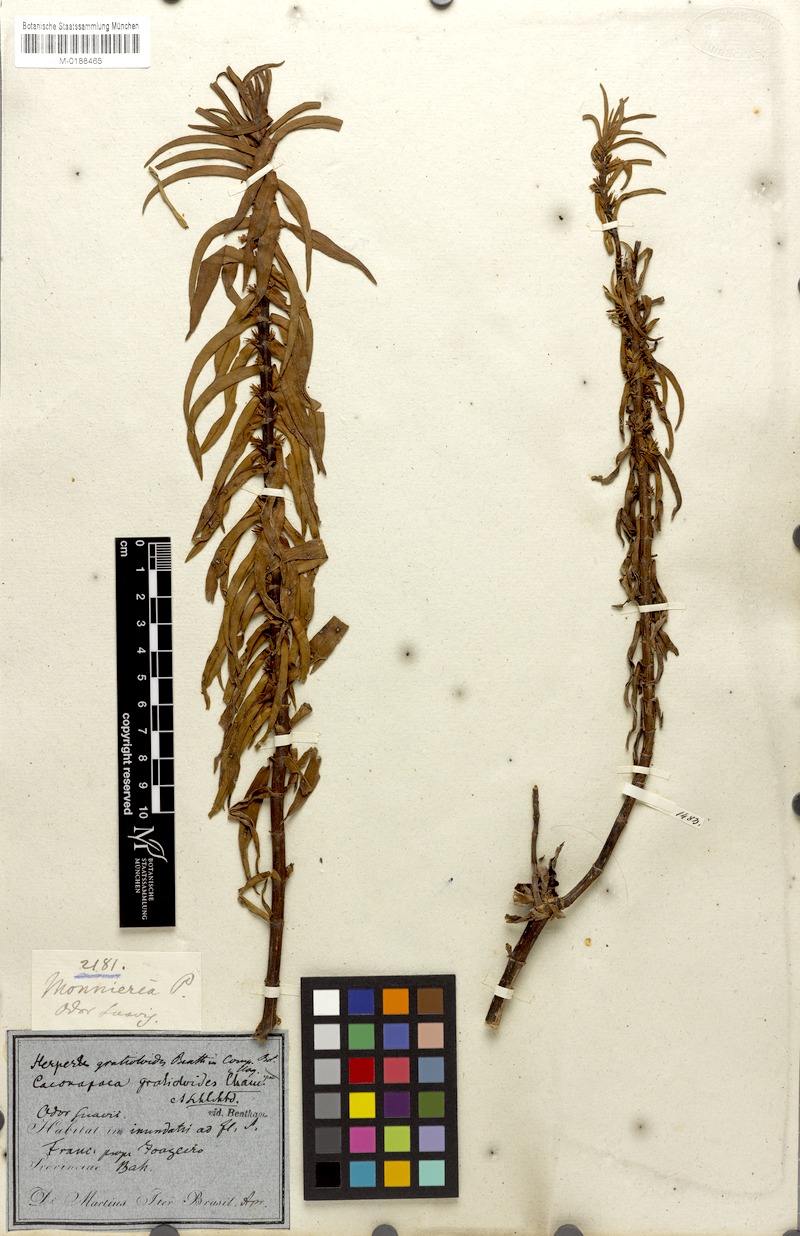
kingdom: Plantae
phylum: Tracheophyta
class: Magnoliopsida
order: Lamiales
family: Plantaginaceae
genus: Bacopa
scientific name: Bacopa gratioloides
